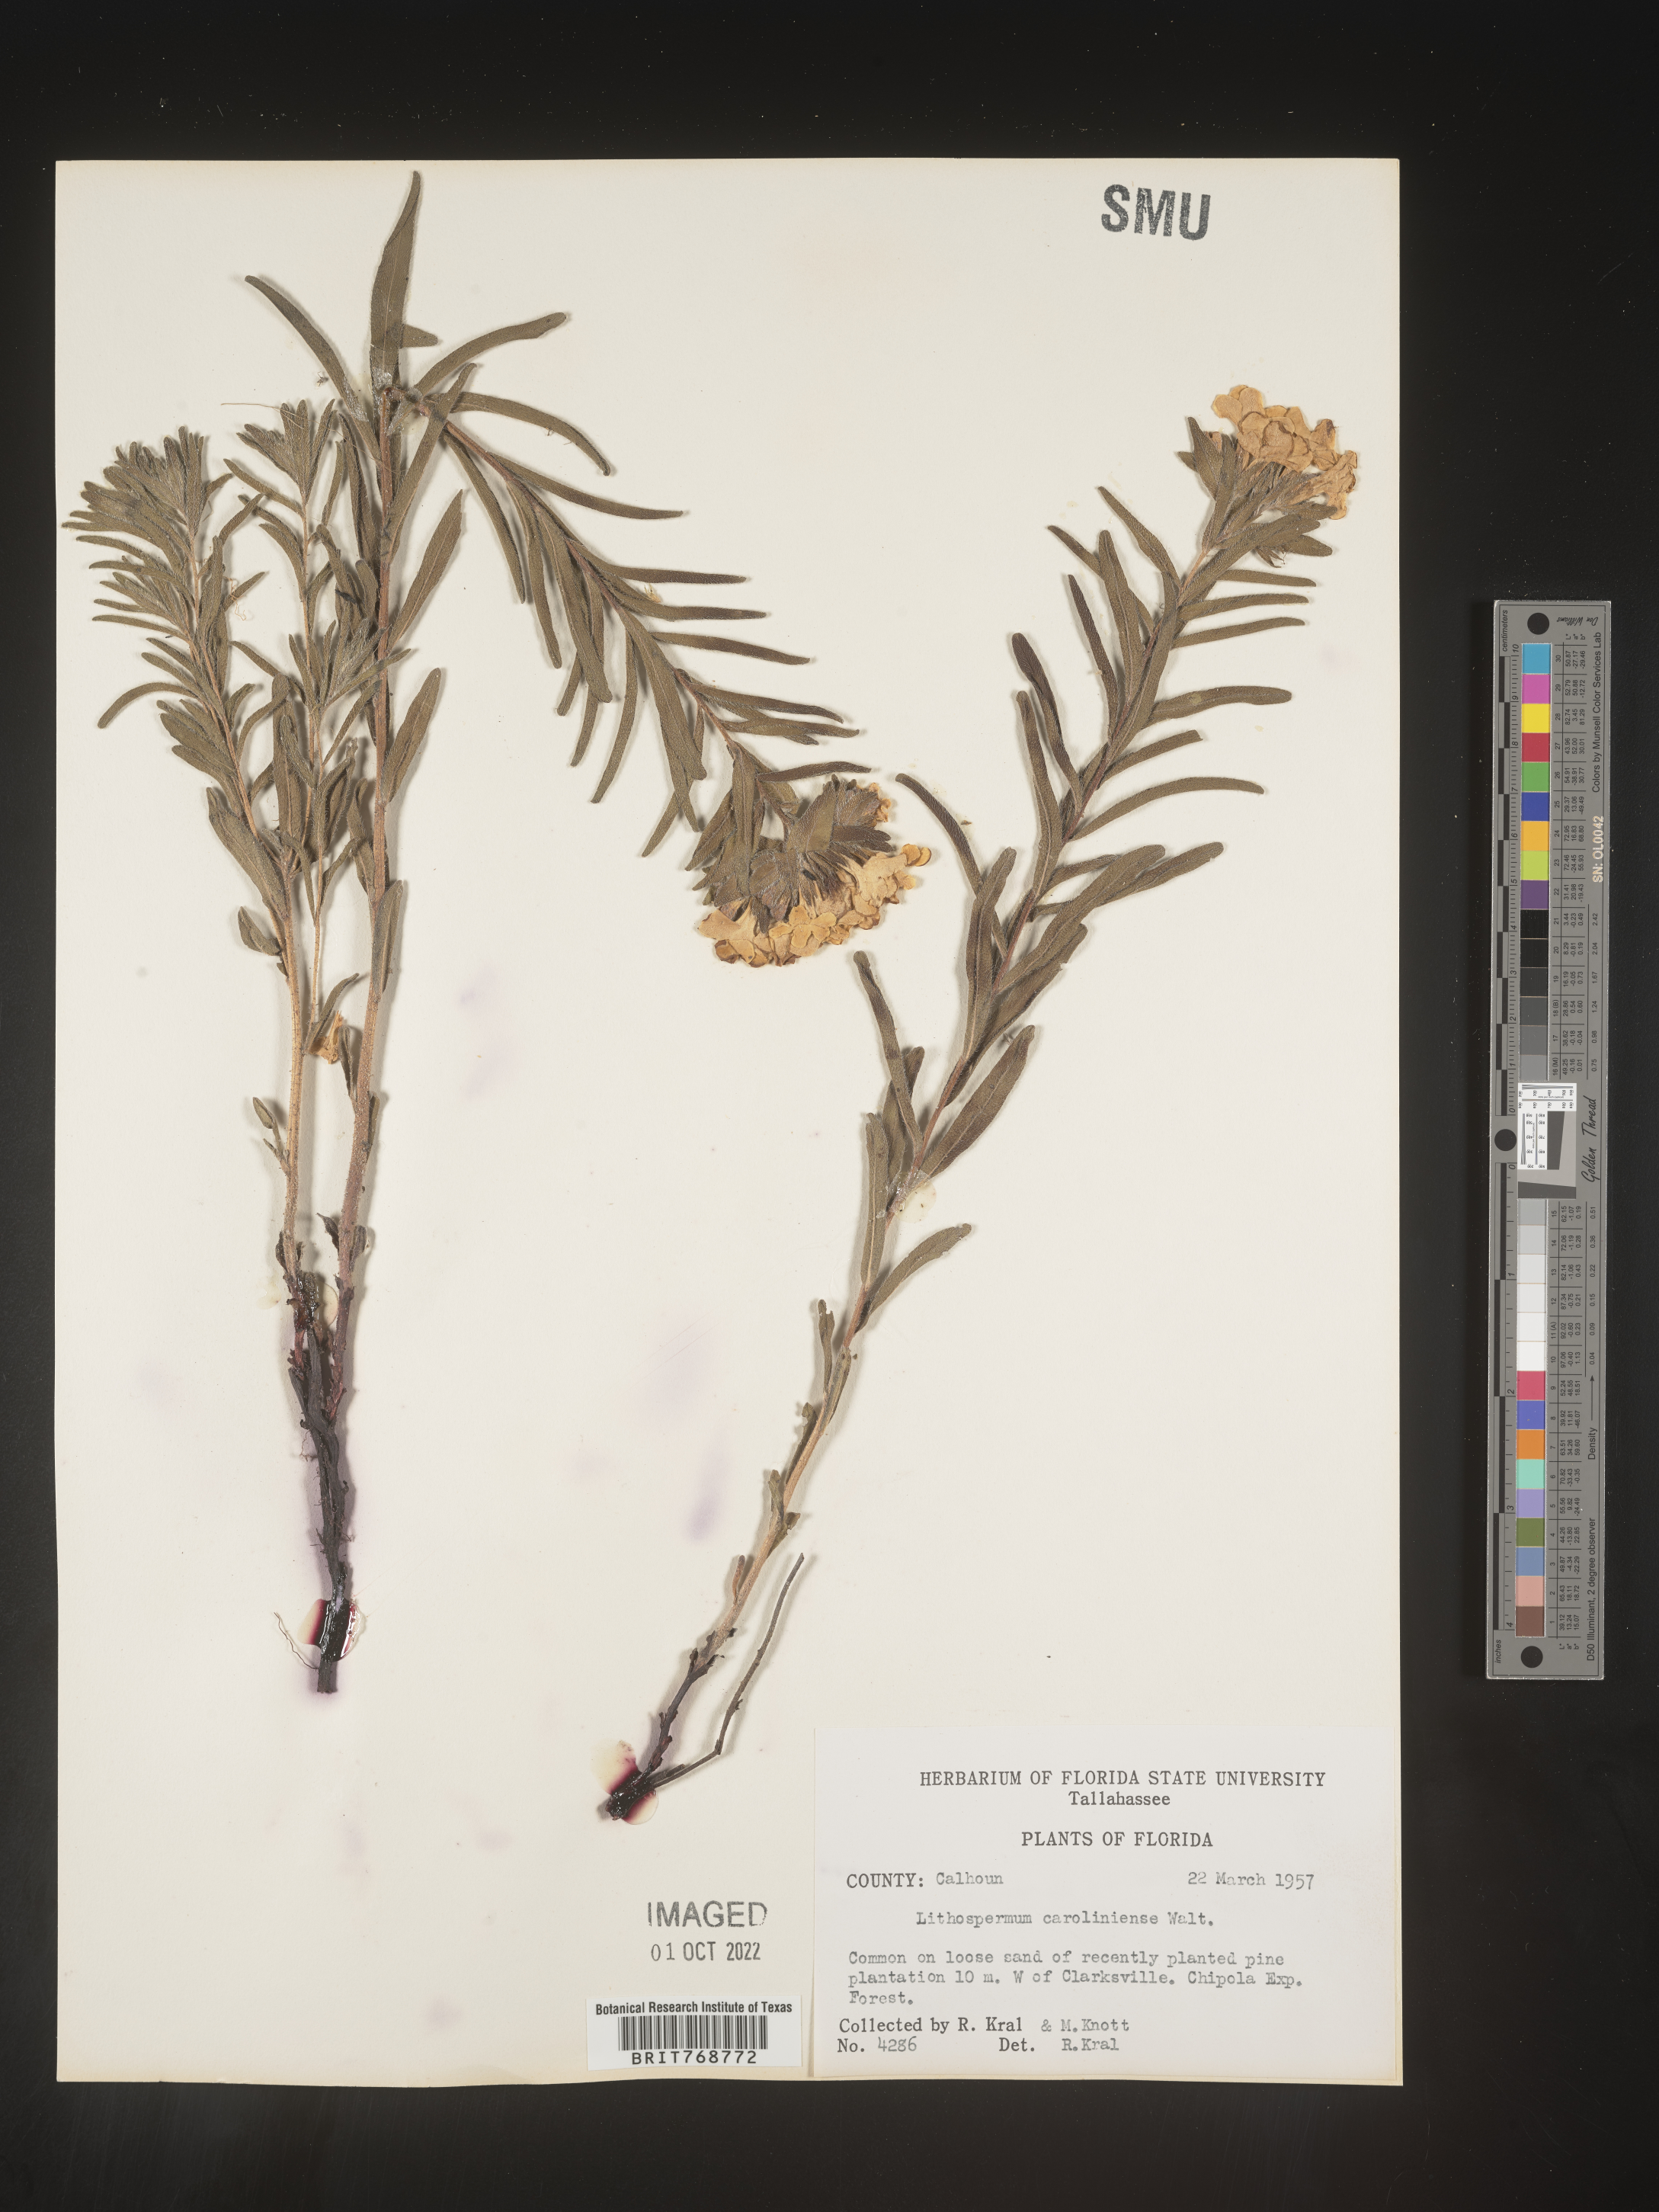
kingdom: Plantae
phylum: Tracheophyta
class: Magnoliopsida
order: Boraginales
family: Boraginaceae
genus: Lithospermum
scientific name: Lithospermum caroliniense
